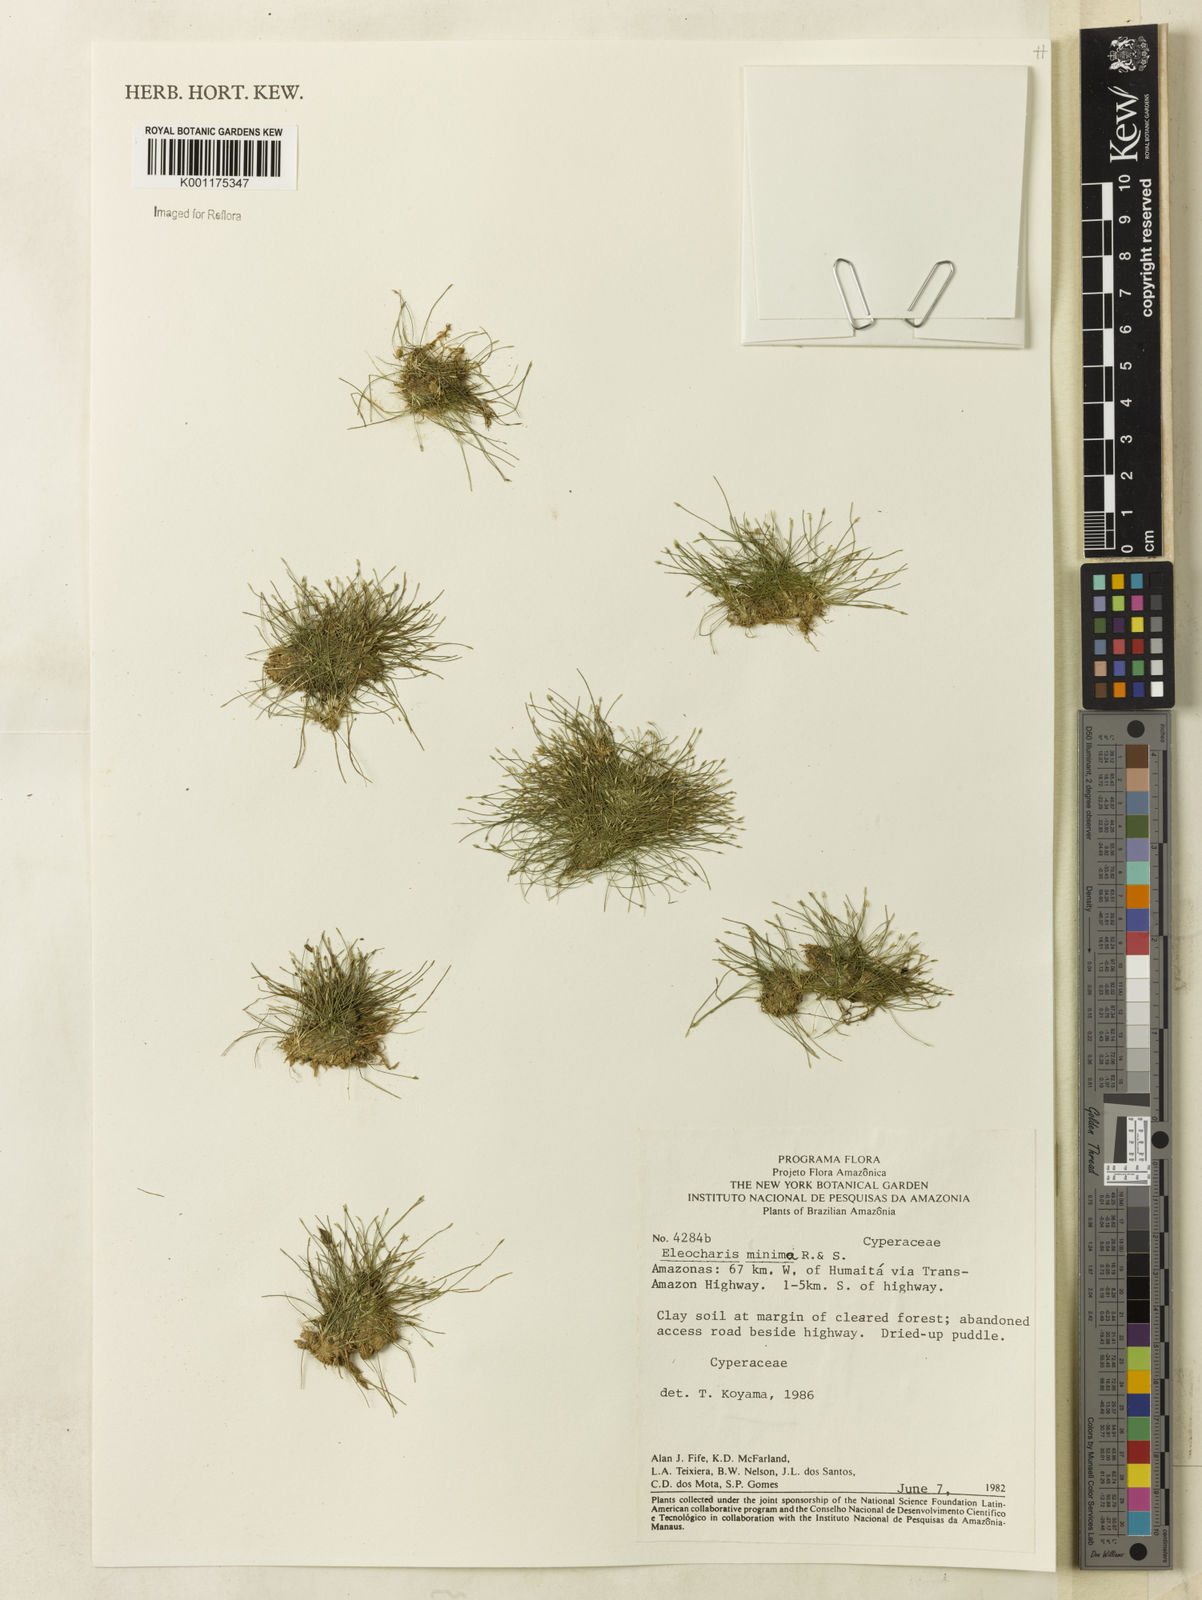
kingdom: Plantae
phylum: Tracheophyta
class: Liliopsida
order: Poales
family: Cyperaceae
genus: Eleocharis
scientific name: Eleocharis minima
